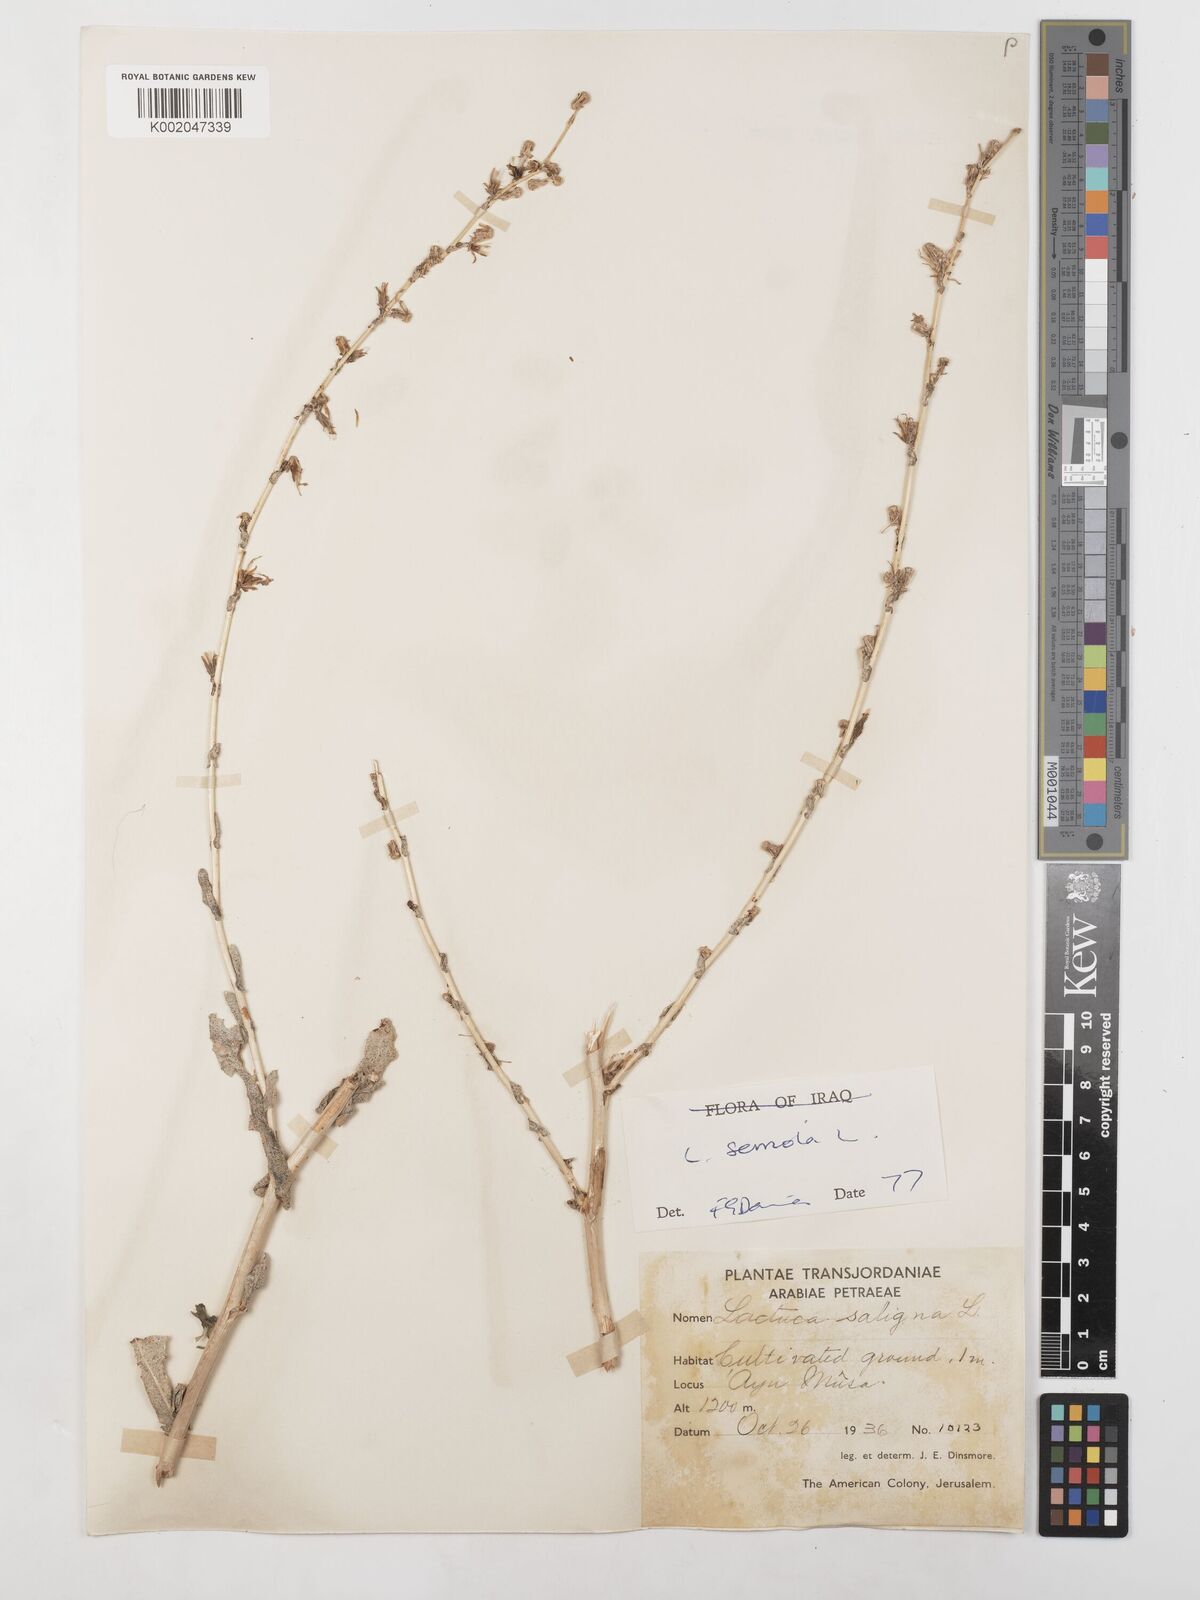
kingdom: Plantae
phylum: Tracheophyta
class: Magnoliopsida
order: Asterales
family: Asteraceae
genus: Lactuca
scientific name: Lactuca saligna
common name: Wild lettuce
